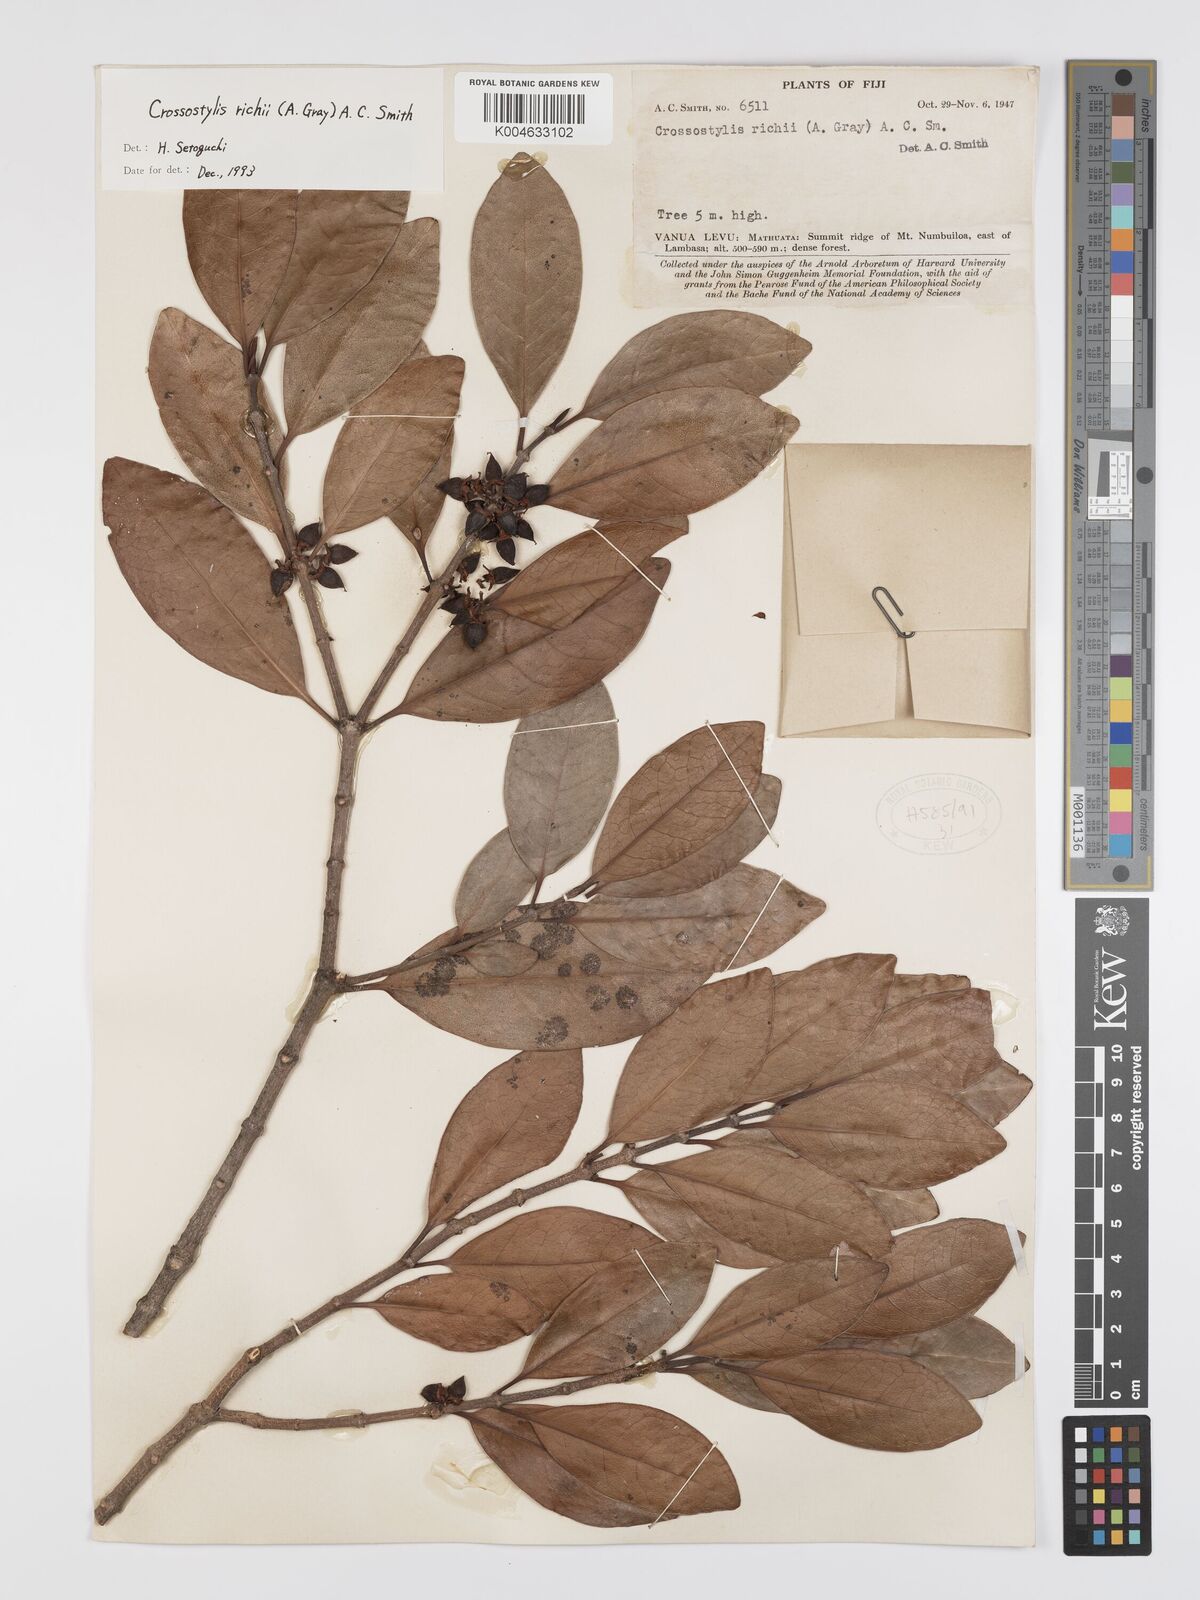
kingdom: Plantae
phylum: Tracheophyta
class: Magnoliopsida
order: Malpighiales
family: Rhizophoraceae
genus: Crossostylis
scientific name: Crossostylis richii
